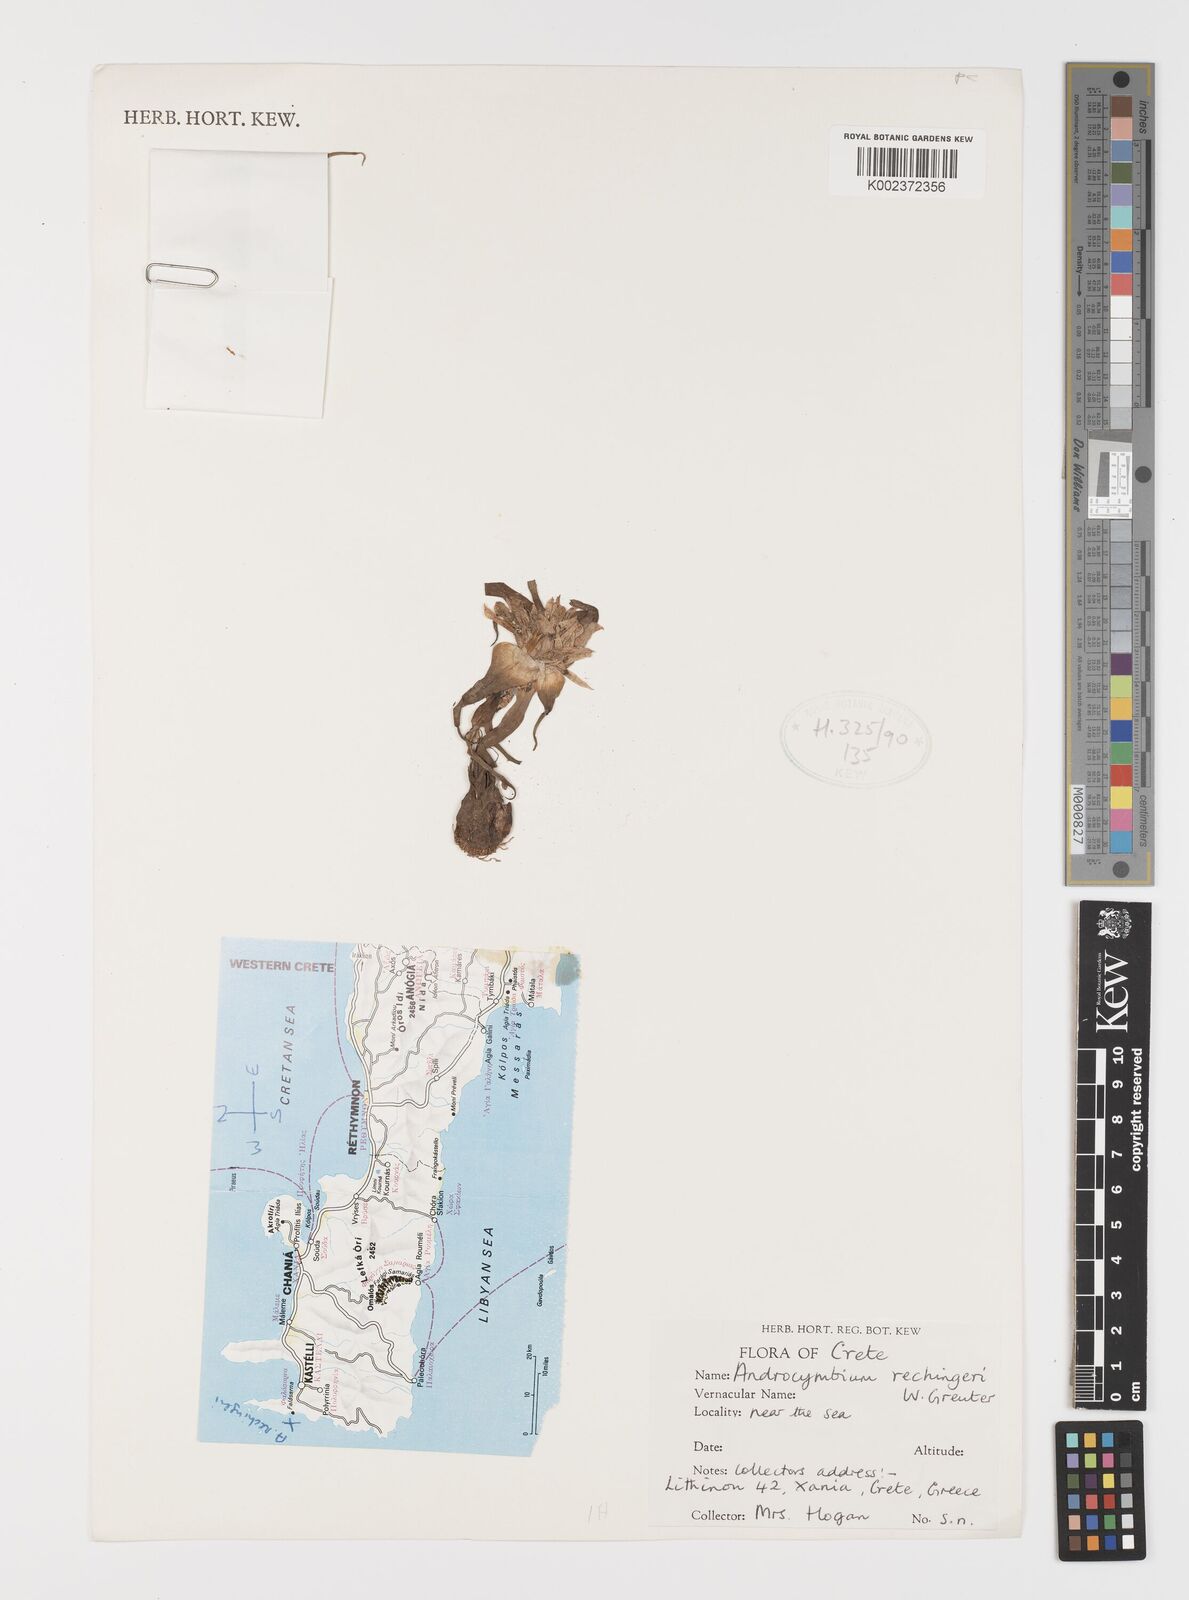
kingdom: Plantae
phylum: Tracheophyta
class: Liliopsida
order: Liliales
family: Colchicaceae
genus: Colchicum
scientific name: Colchicum rechingeri
